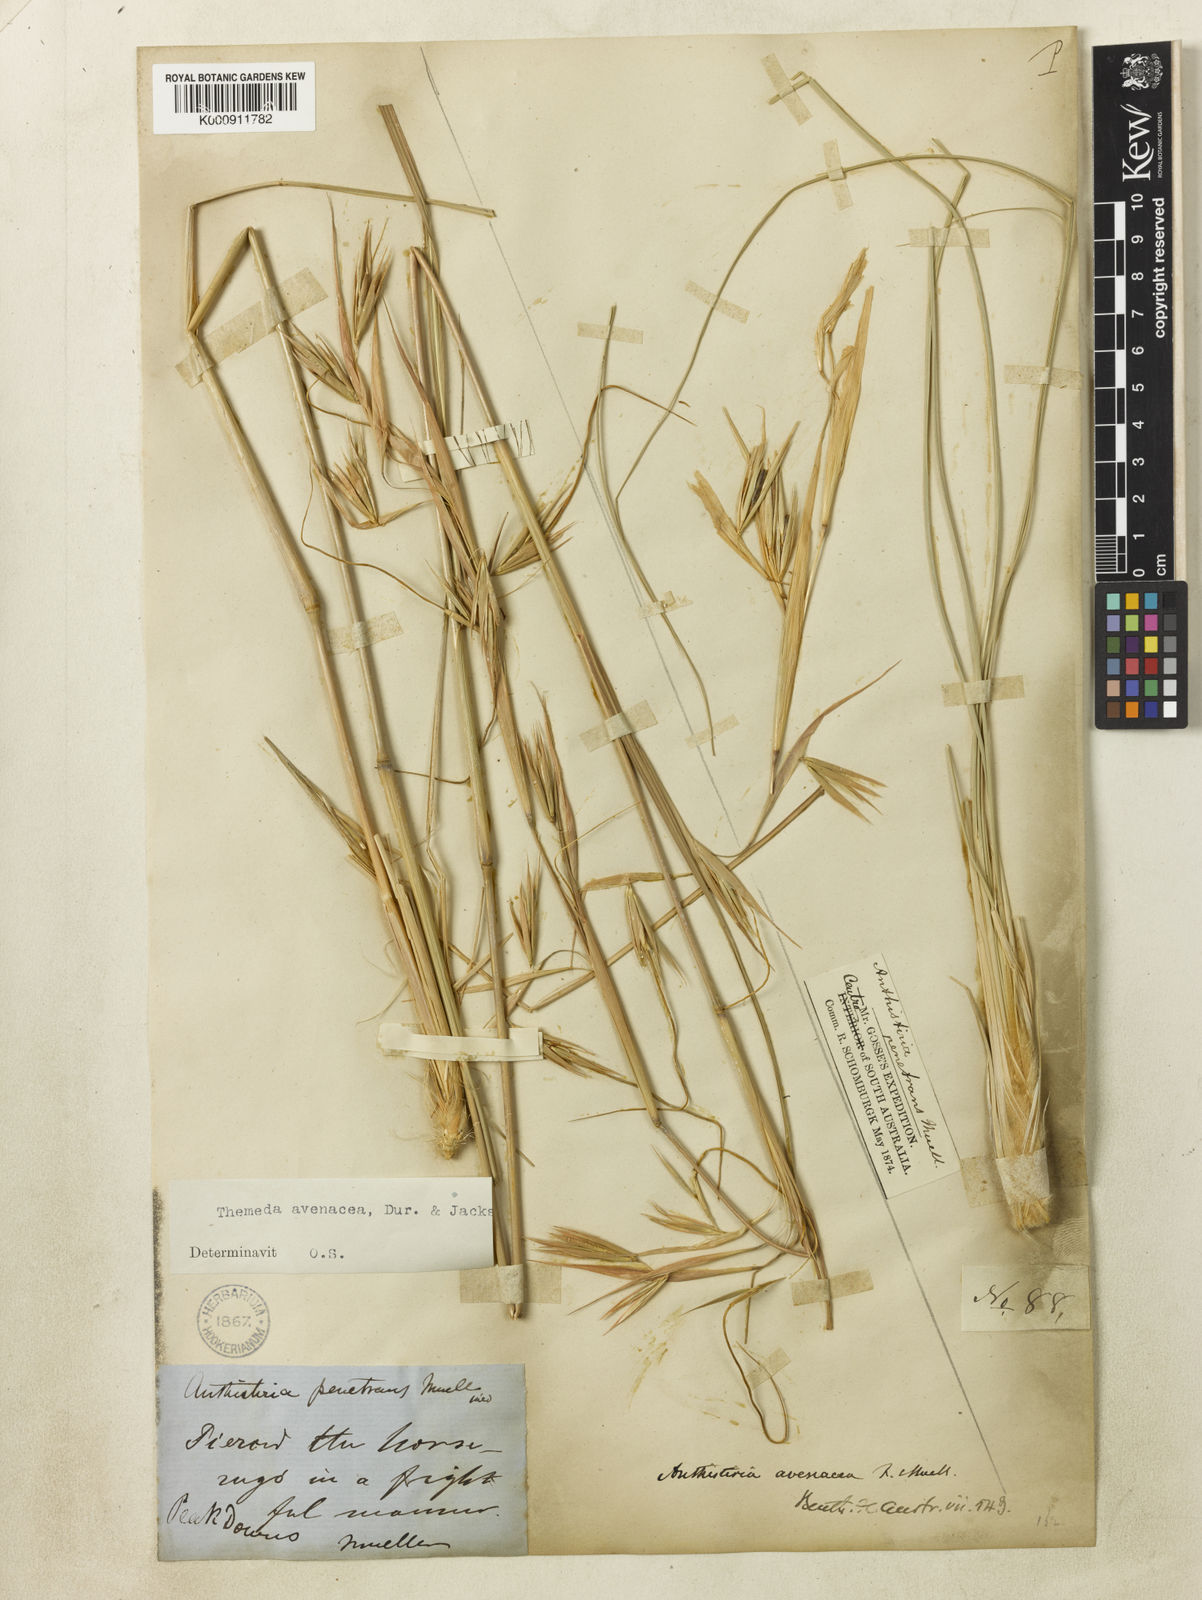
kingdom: Plantae
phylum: Tracheophyta
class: Liliopsida
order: Poales
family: Poaceae
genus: Themeda
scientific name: Themeda avenacea
